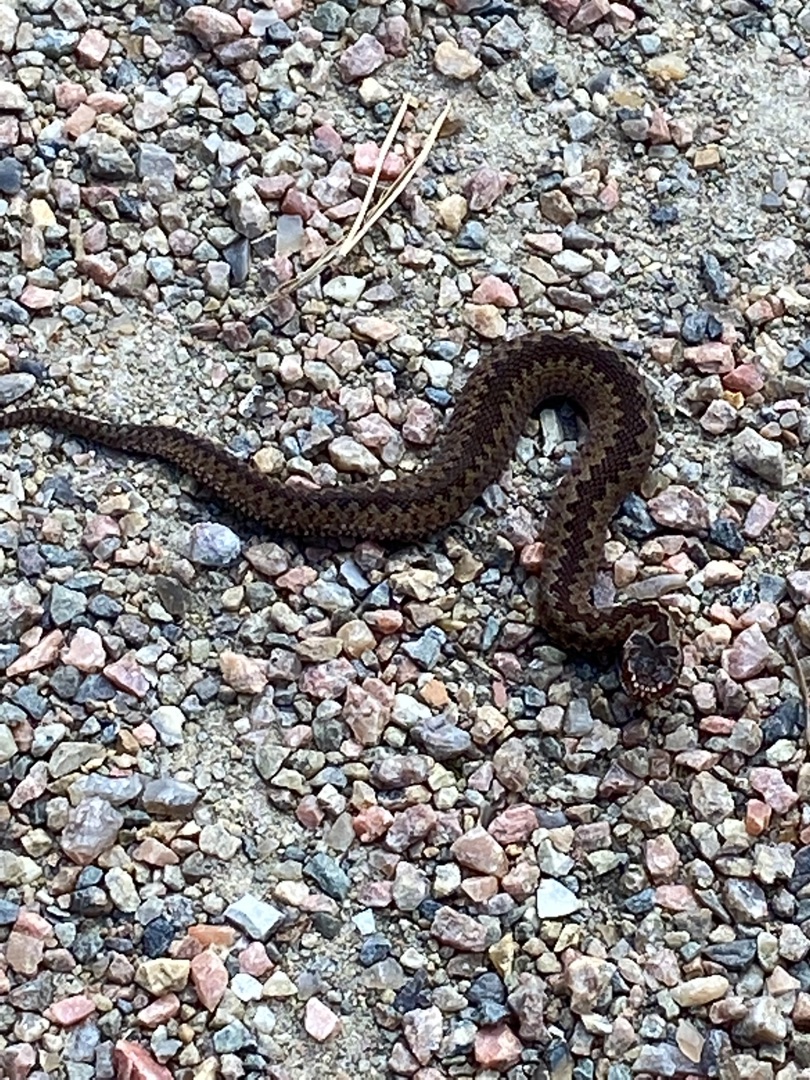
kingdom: Animalia
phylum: Chordata
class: Squamata
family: Viperidae
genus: Vipera
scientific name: Vipera berus
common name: Hugorm
